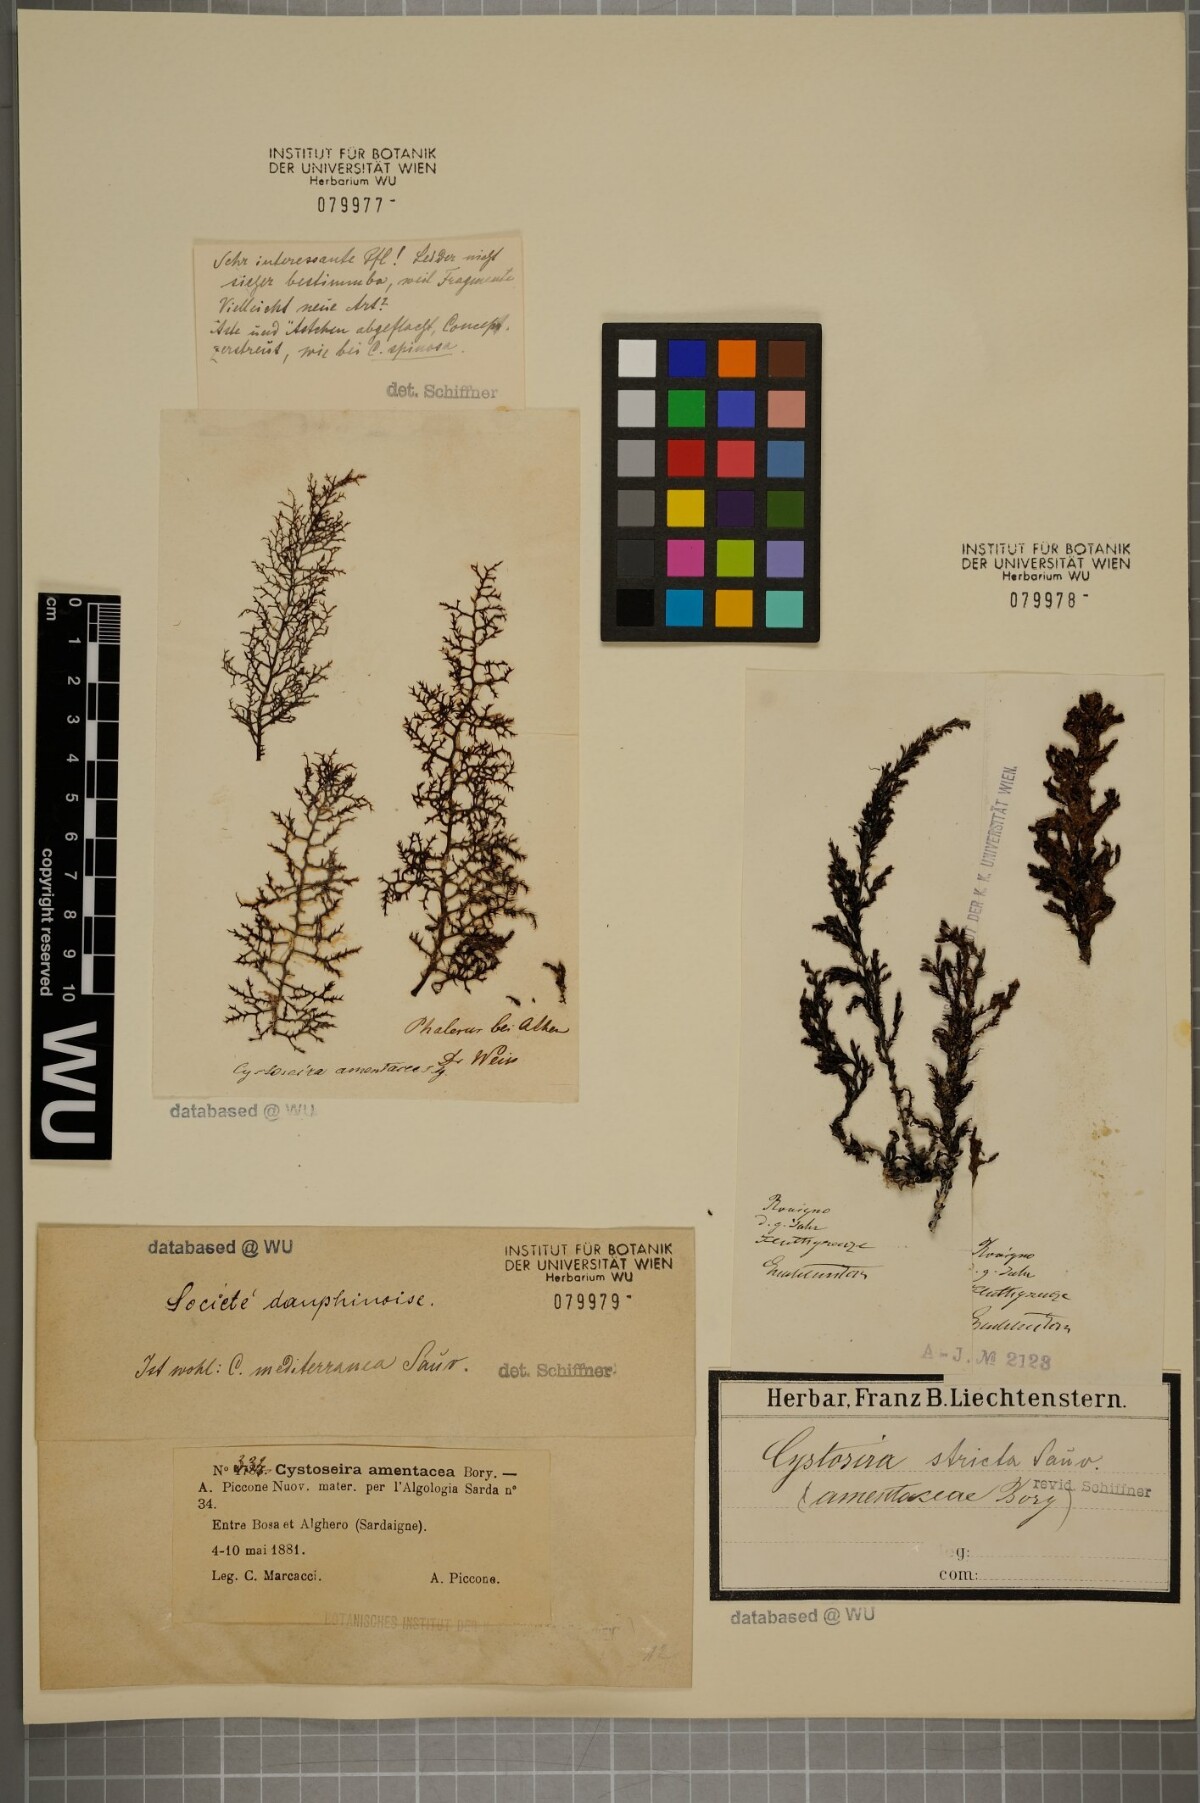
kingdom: Chromista
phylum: Ochrophyta
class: Phaeophyceae
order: Fucales
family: Sargassaceae
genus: Cystoseira
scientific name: Cystoseira Ericaria amentacea
